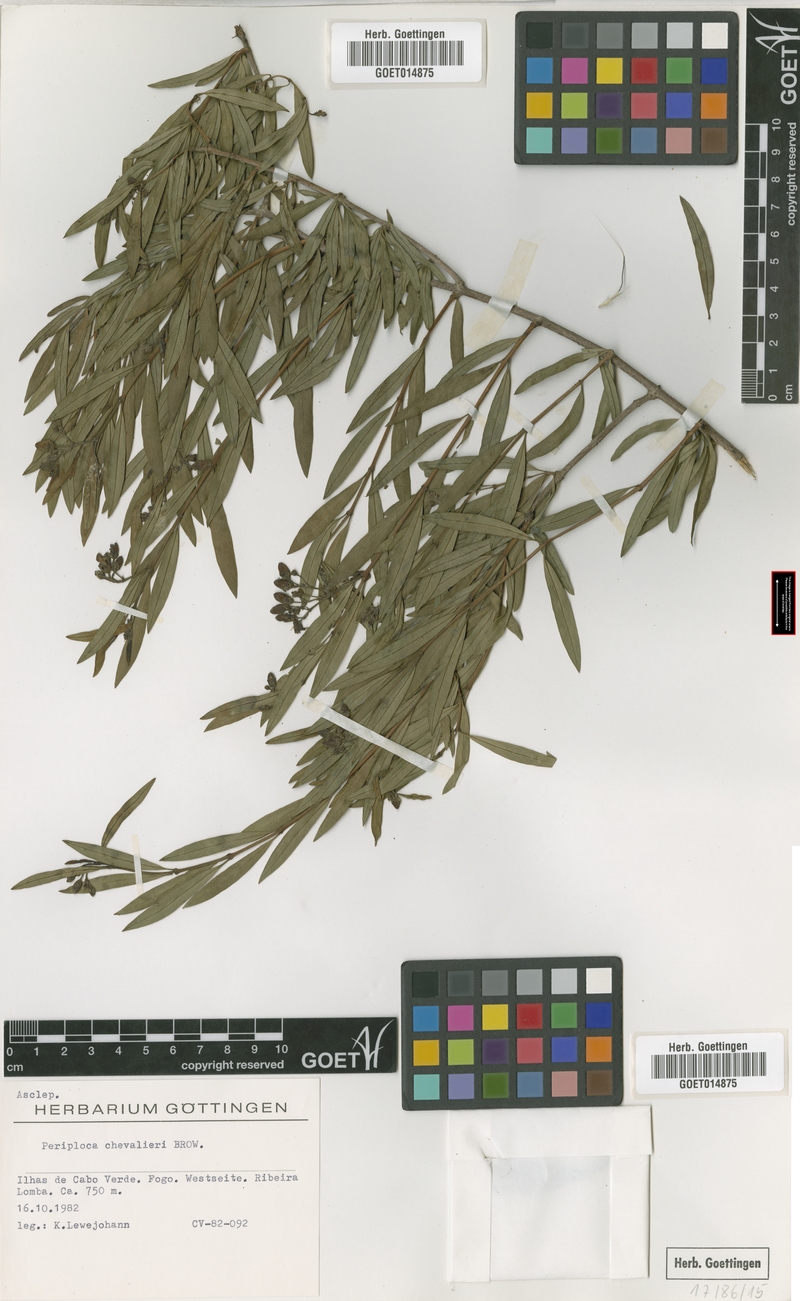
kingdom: Plantae
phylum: Tracheophyta
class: Magnoliopsida
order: Gentianales
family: Apocynaceae
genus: Periploca
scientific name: Periploca chevalieri
